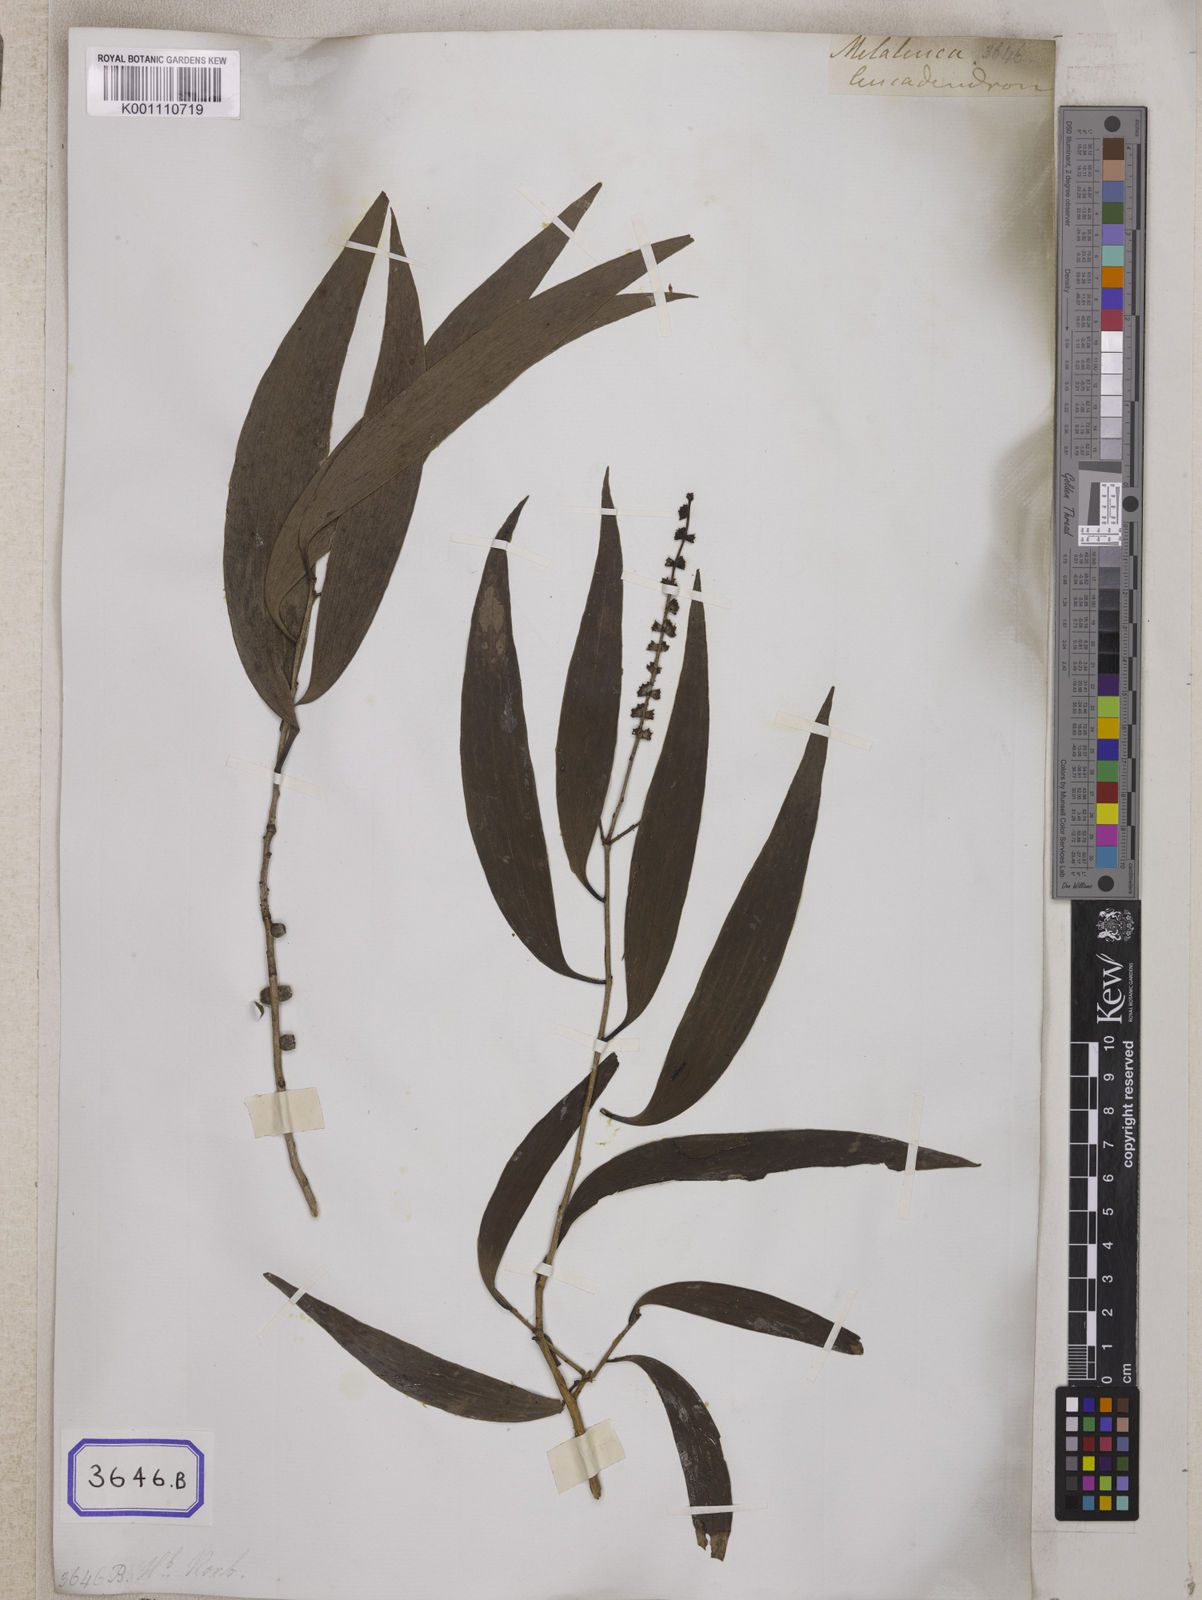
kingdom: Plantae
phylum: Tracheophyta
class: Magnoliopsida
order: Myrtales
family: Myrtaceae
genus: Melaleuca
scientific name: Melaleuca leucadendra
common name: Weeping paperbark
